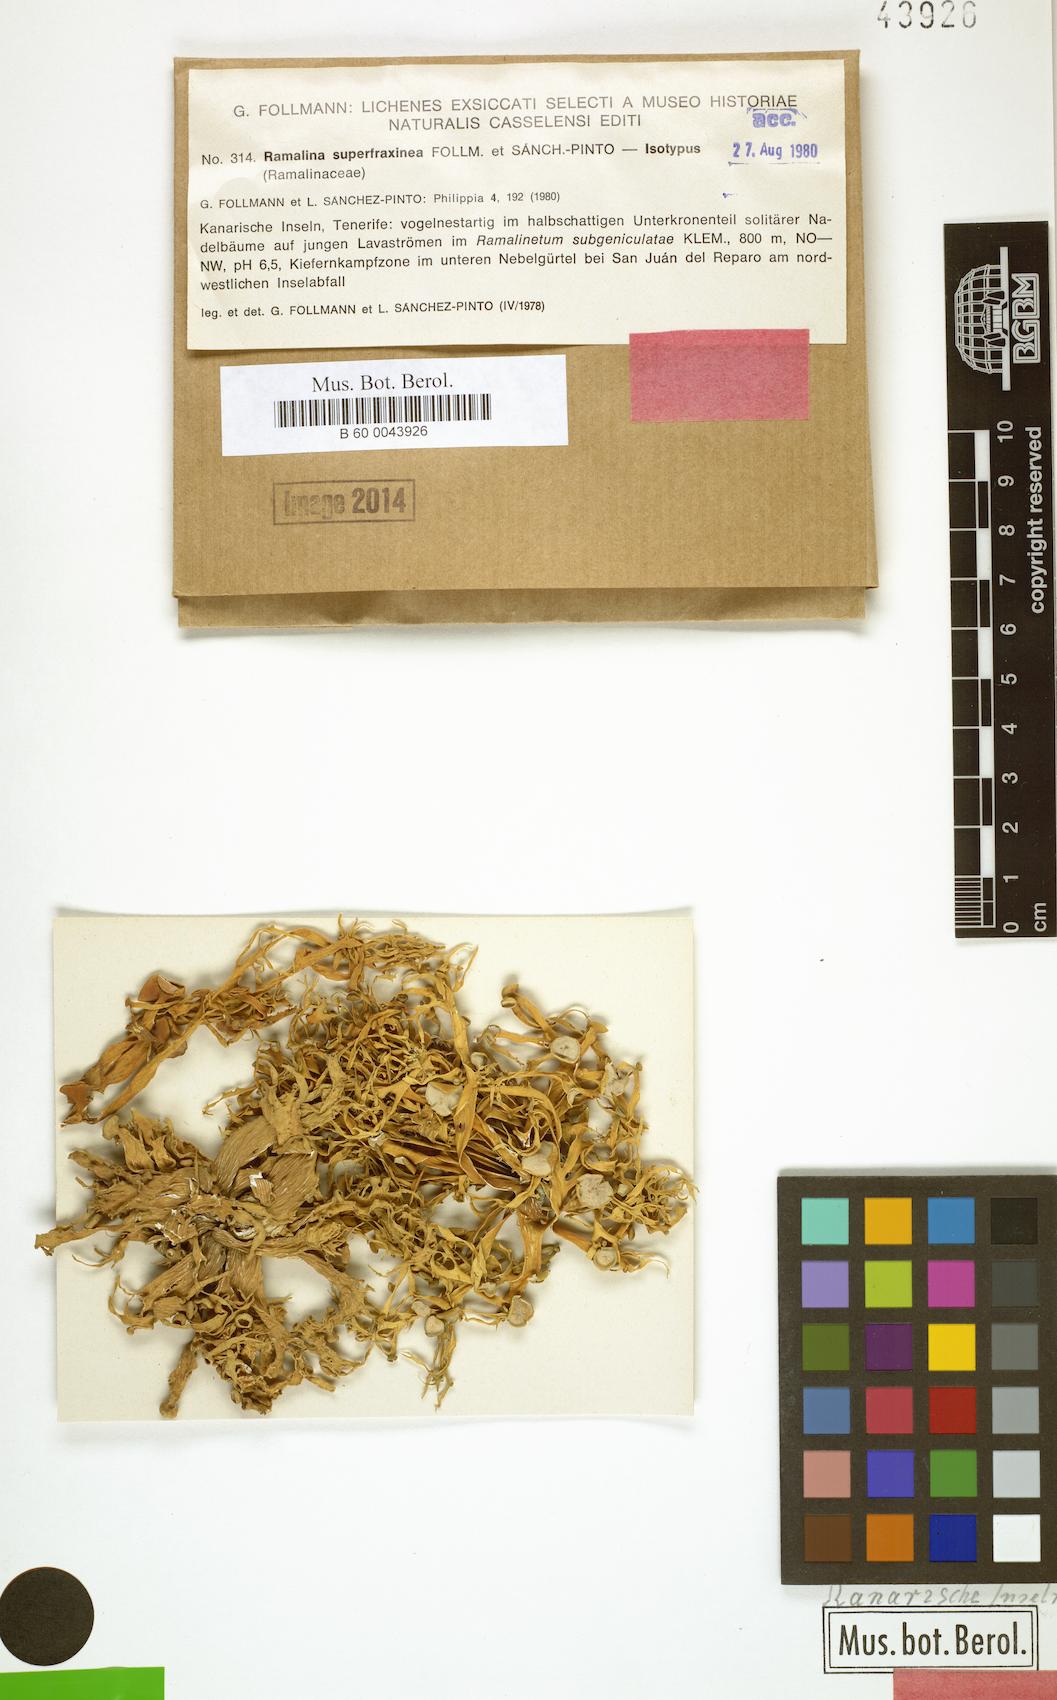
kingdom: Fungi
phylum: Ascomycota
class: Lecanoromycetes
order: Lecanorales
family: Ramalinaceae
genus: Ramalina
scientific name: Ramalina superfraxinea
